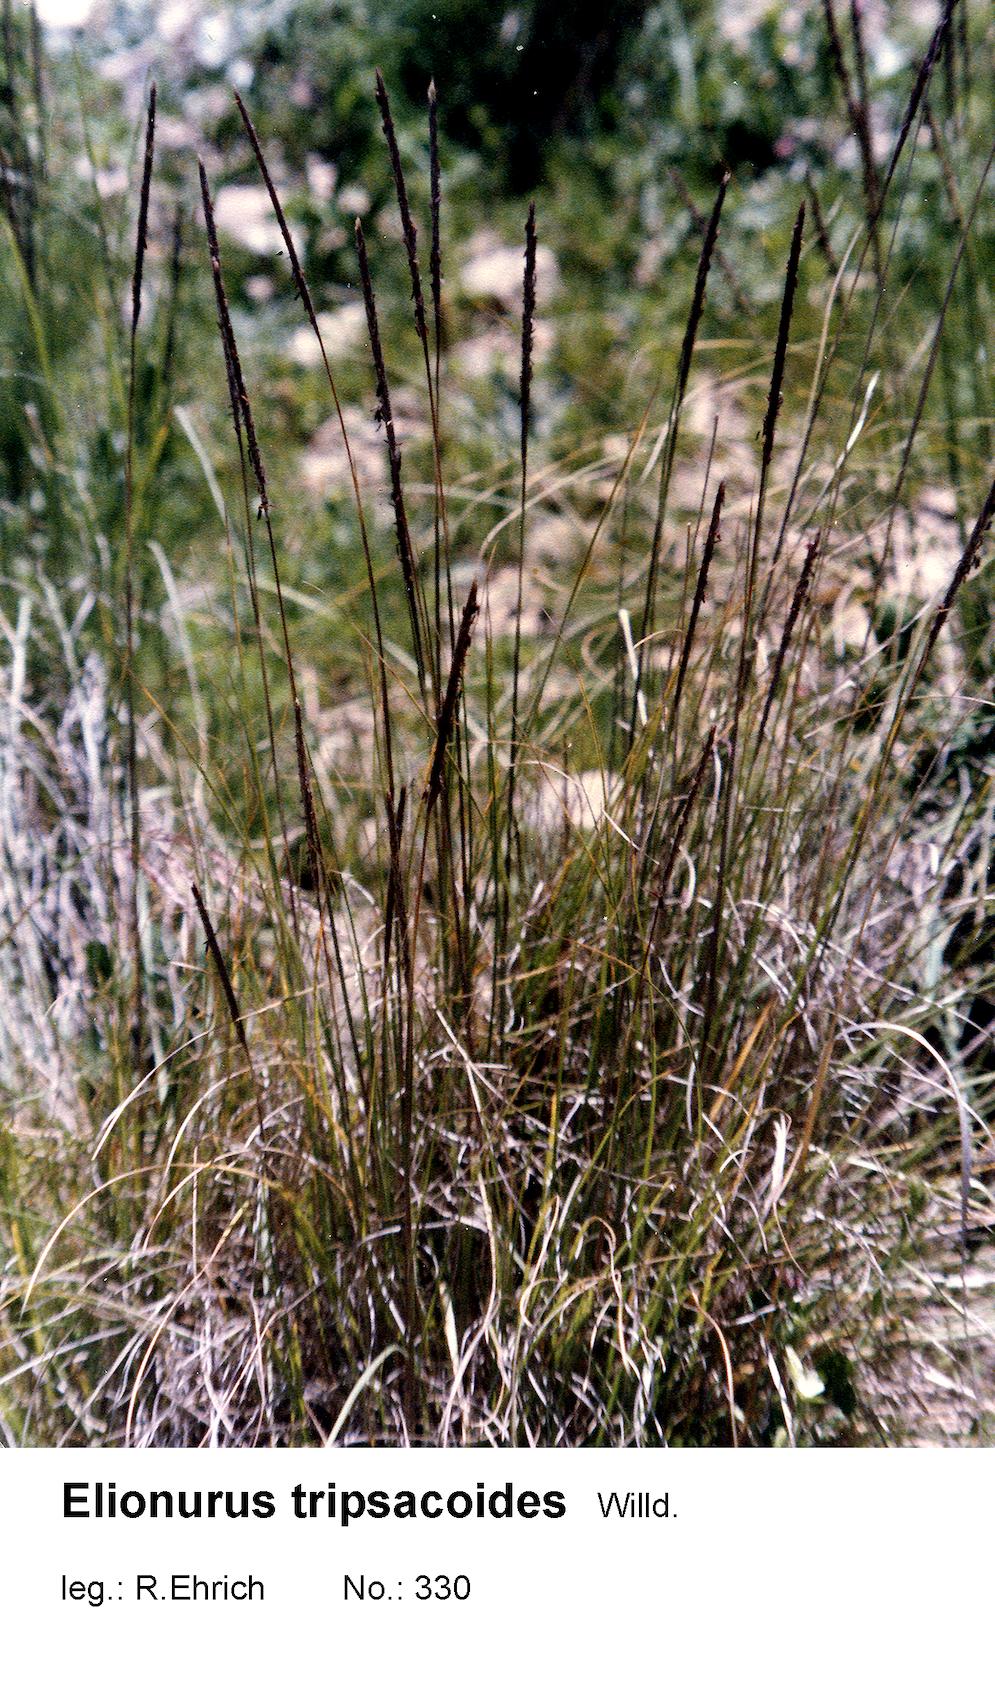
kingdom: Plantae
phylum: Tracheophyta
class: Liliopsida
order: Poales
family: Poaceae
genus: Elionurus
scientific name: Elionurus tripsacoides
